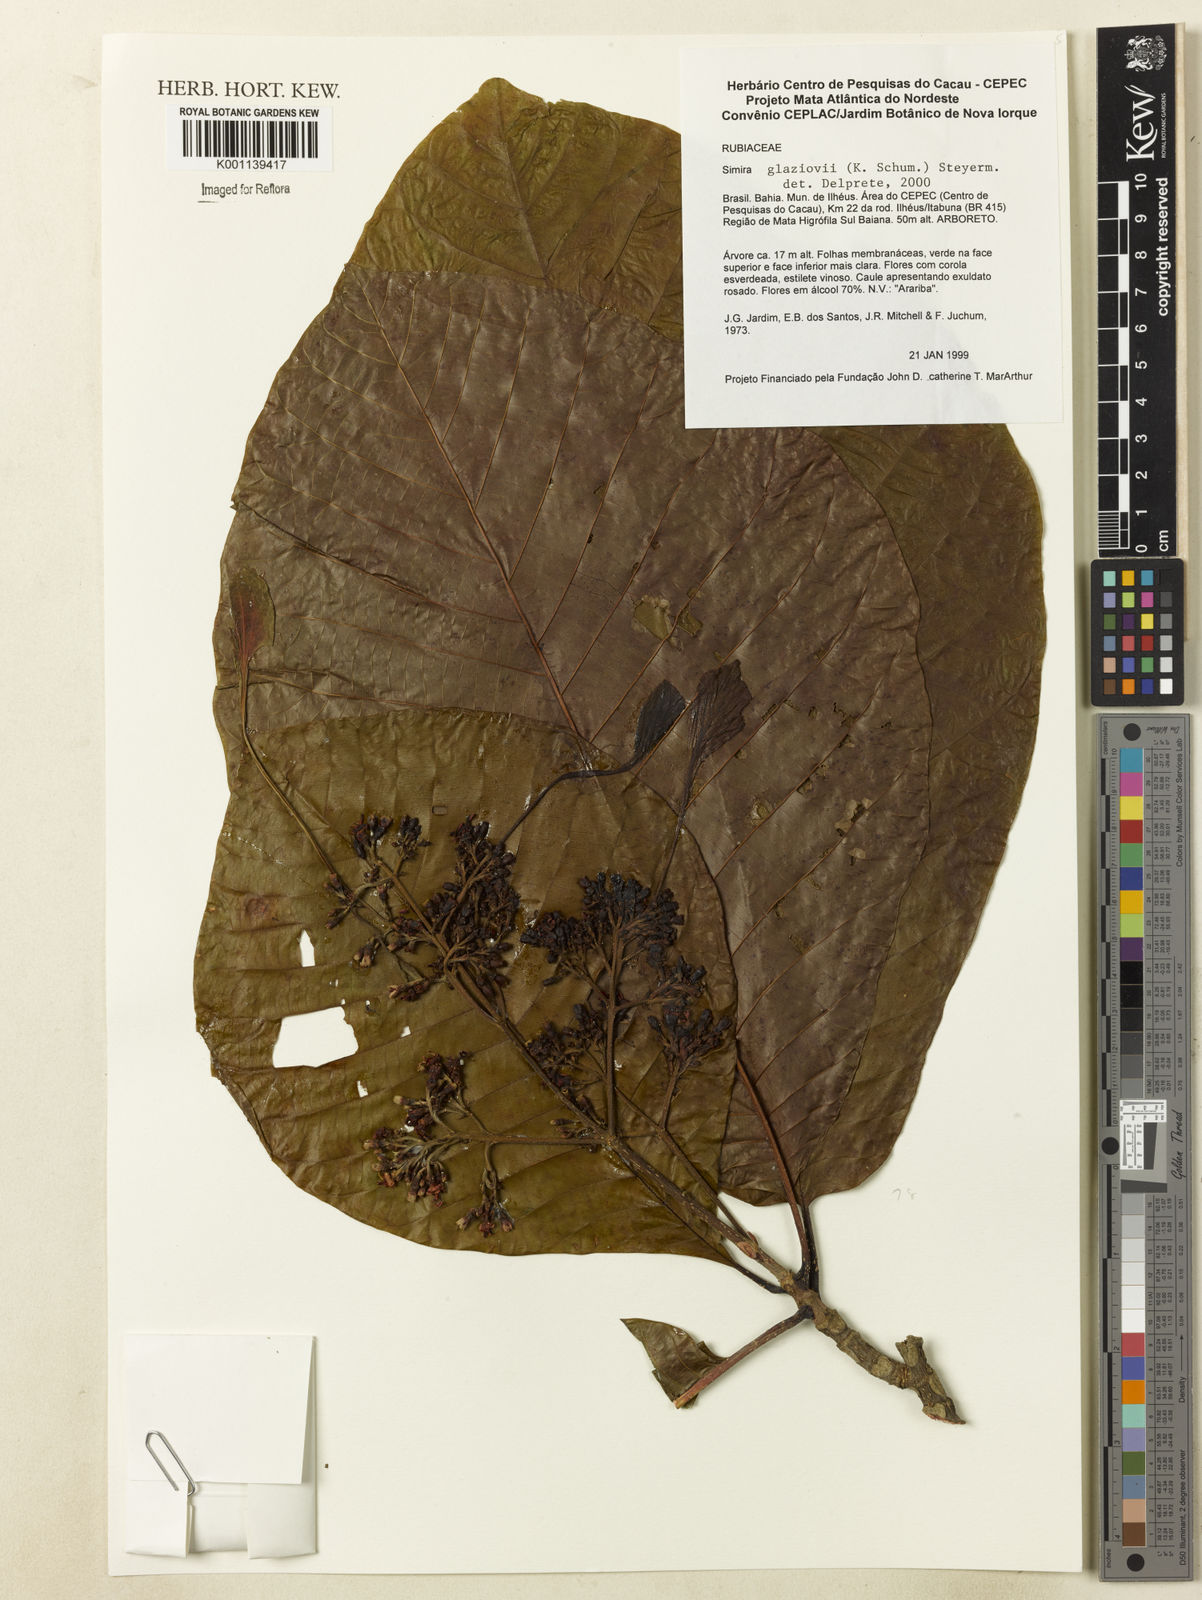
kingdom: Plantae
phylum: Tracheophyta
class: Magnoliopsida
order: Gentianales
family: Rubiaceae
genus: Simira
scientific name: Simira alba
